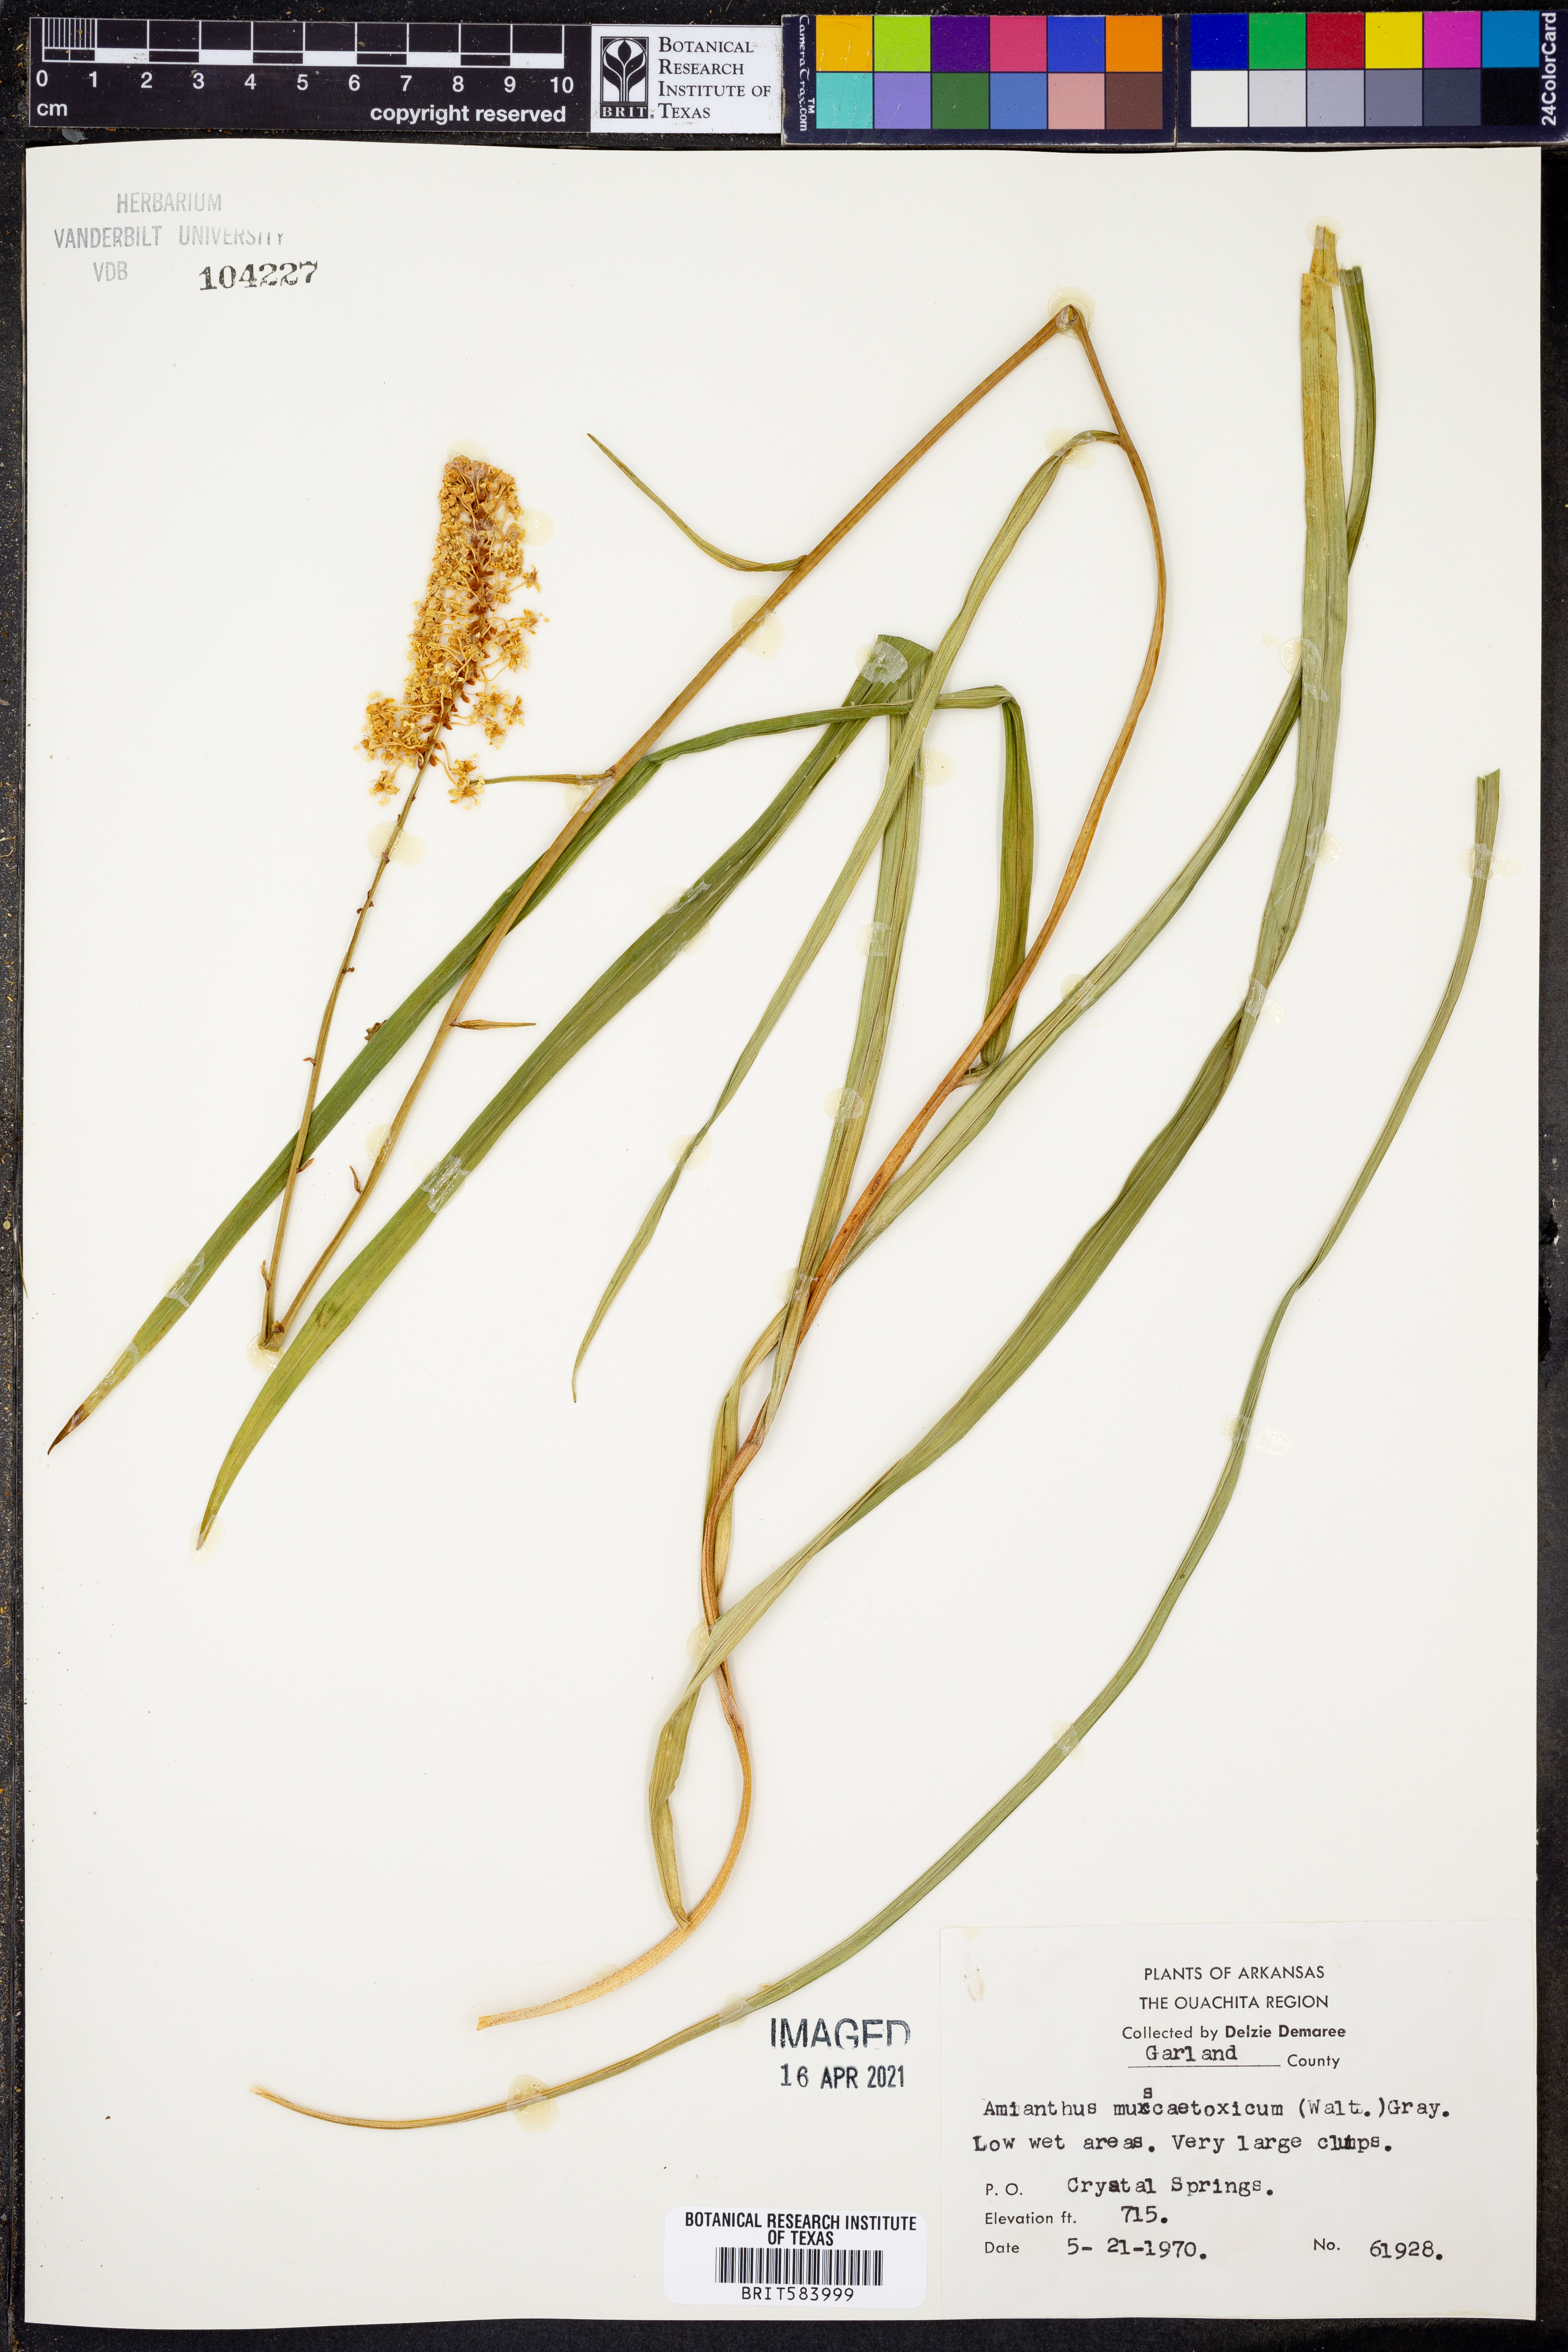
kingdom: Plantae
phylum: Tracheophyta
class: Liliopsida
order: Liliales
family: Melanthiaceae
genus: Amianthium
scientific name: Amianthium muscitoxicum
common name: Fly-poison
